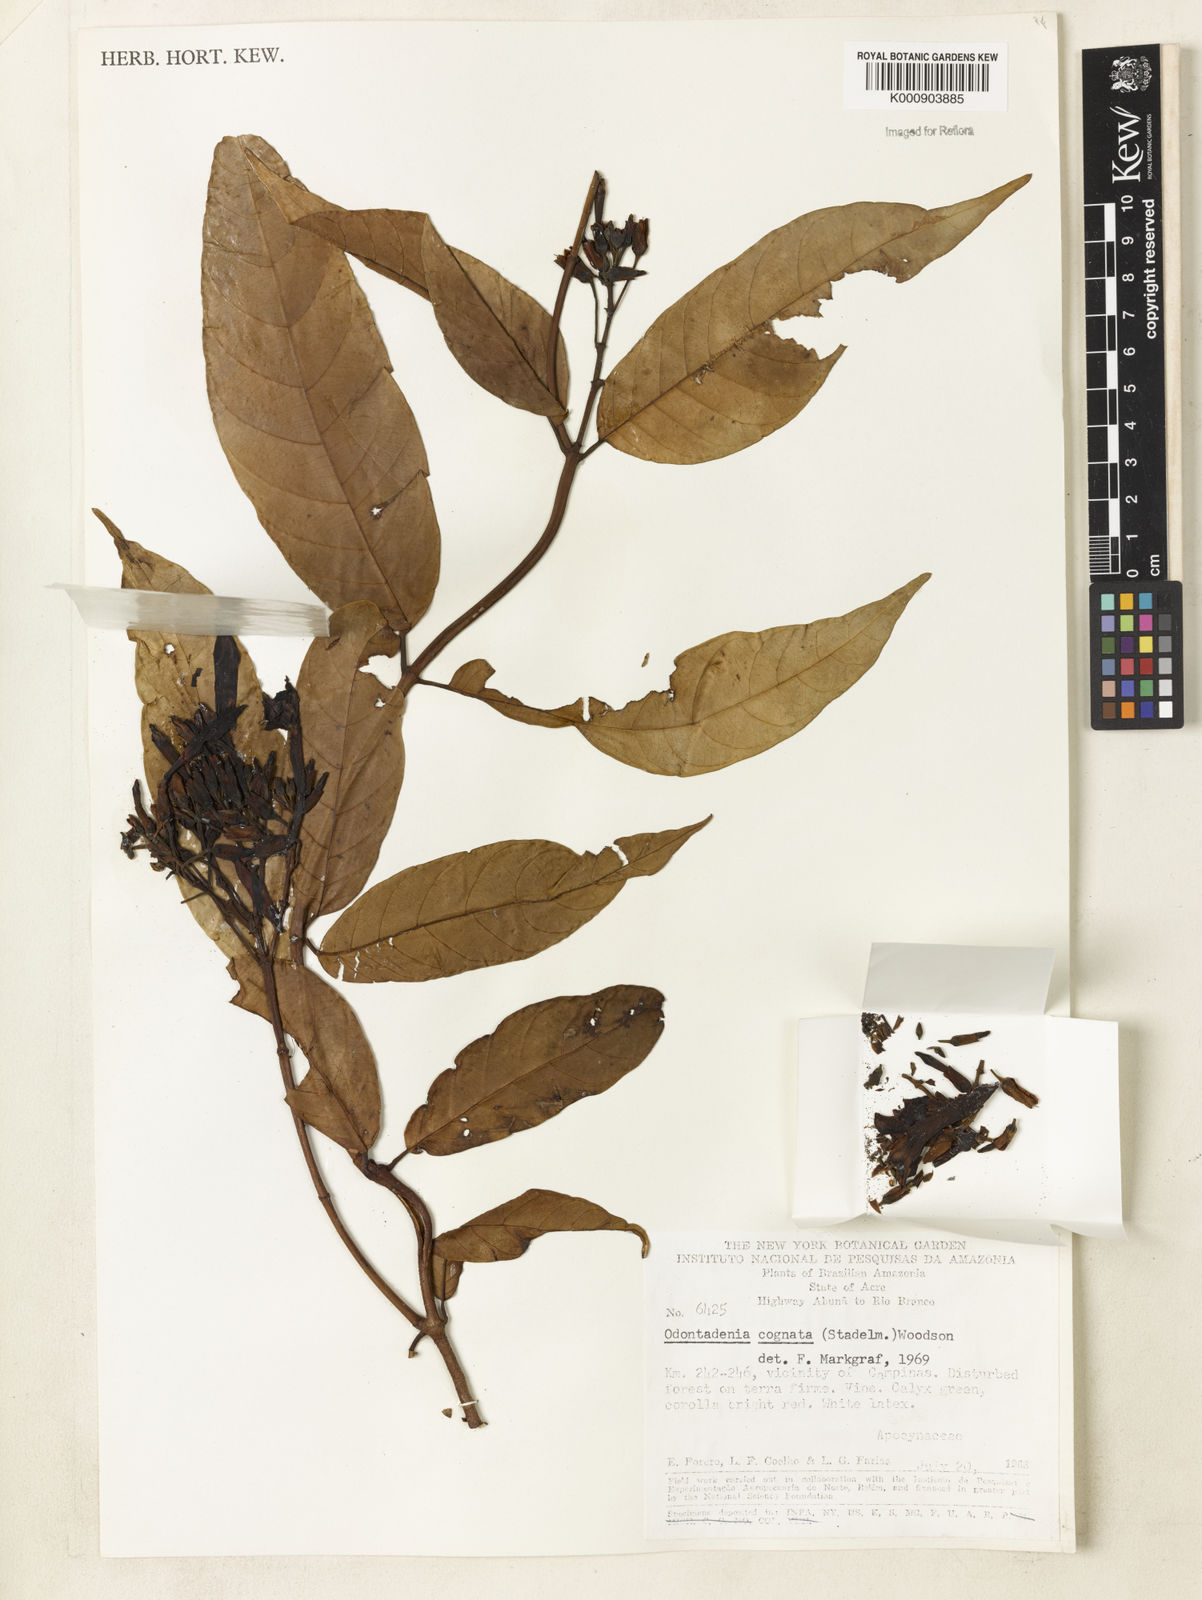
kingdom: Plantae
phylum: Tracheophyta
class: Magnoliopsida
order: Gentianales
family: Apocynaceae
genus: Odontadenia
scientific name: Odontadenia verrucosa
